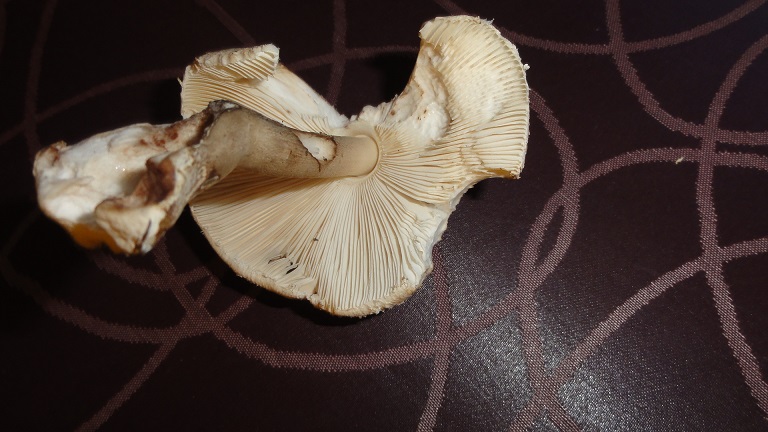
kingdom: Fungi
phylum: Basidiomycota
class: Agaricomycetes
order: Agaricales
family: Agaricaceae
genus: Macrolepiota
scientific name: Macrolepiota mastoidea
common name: puklet kæmpeparasolhat
